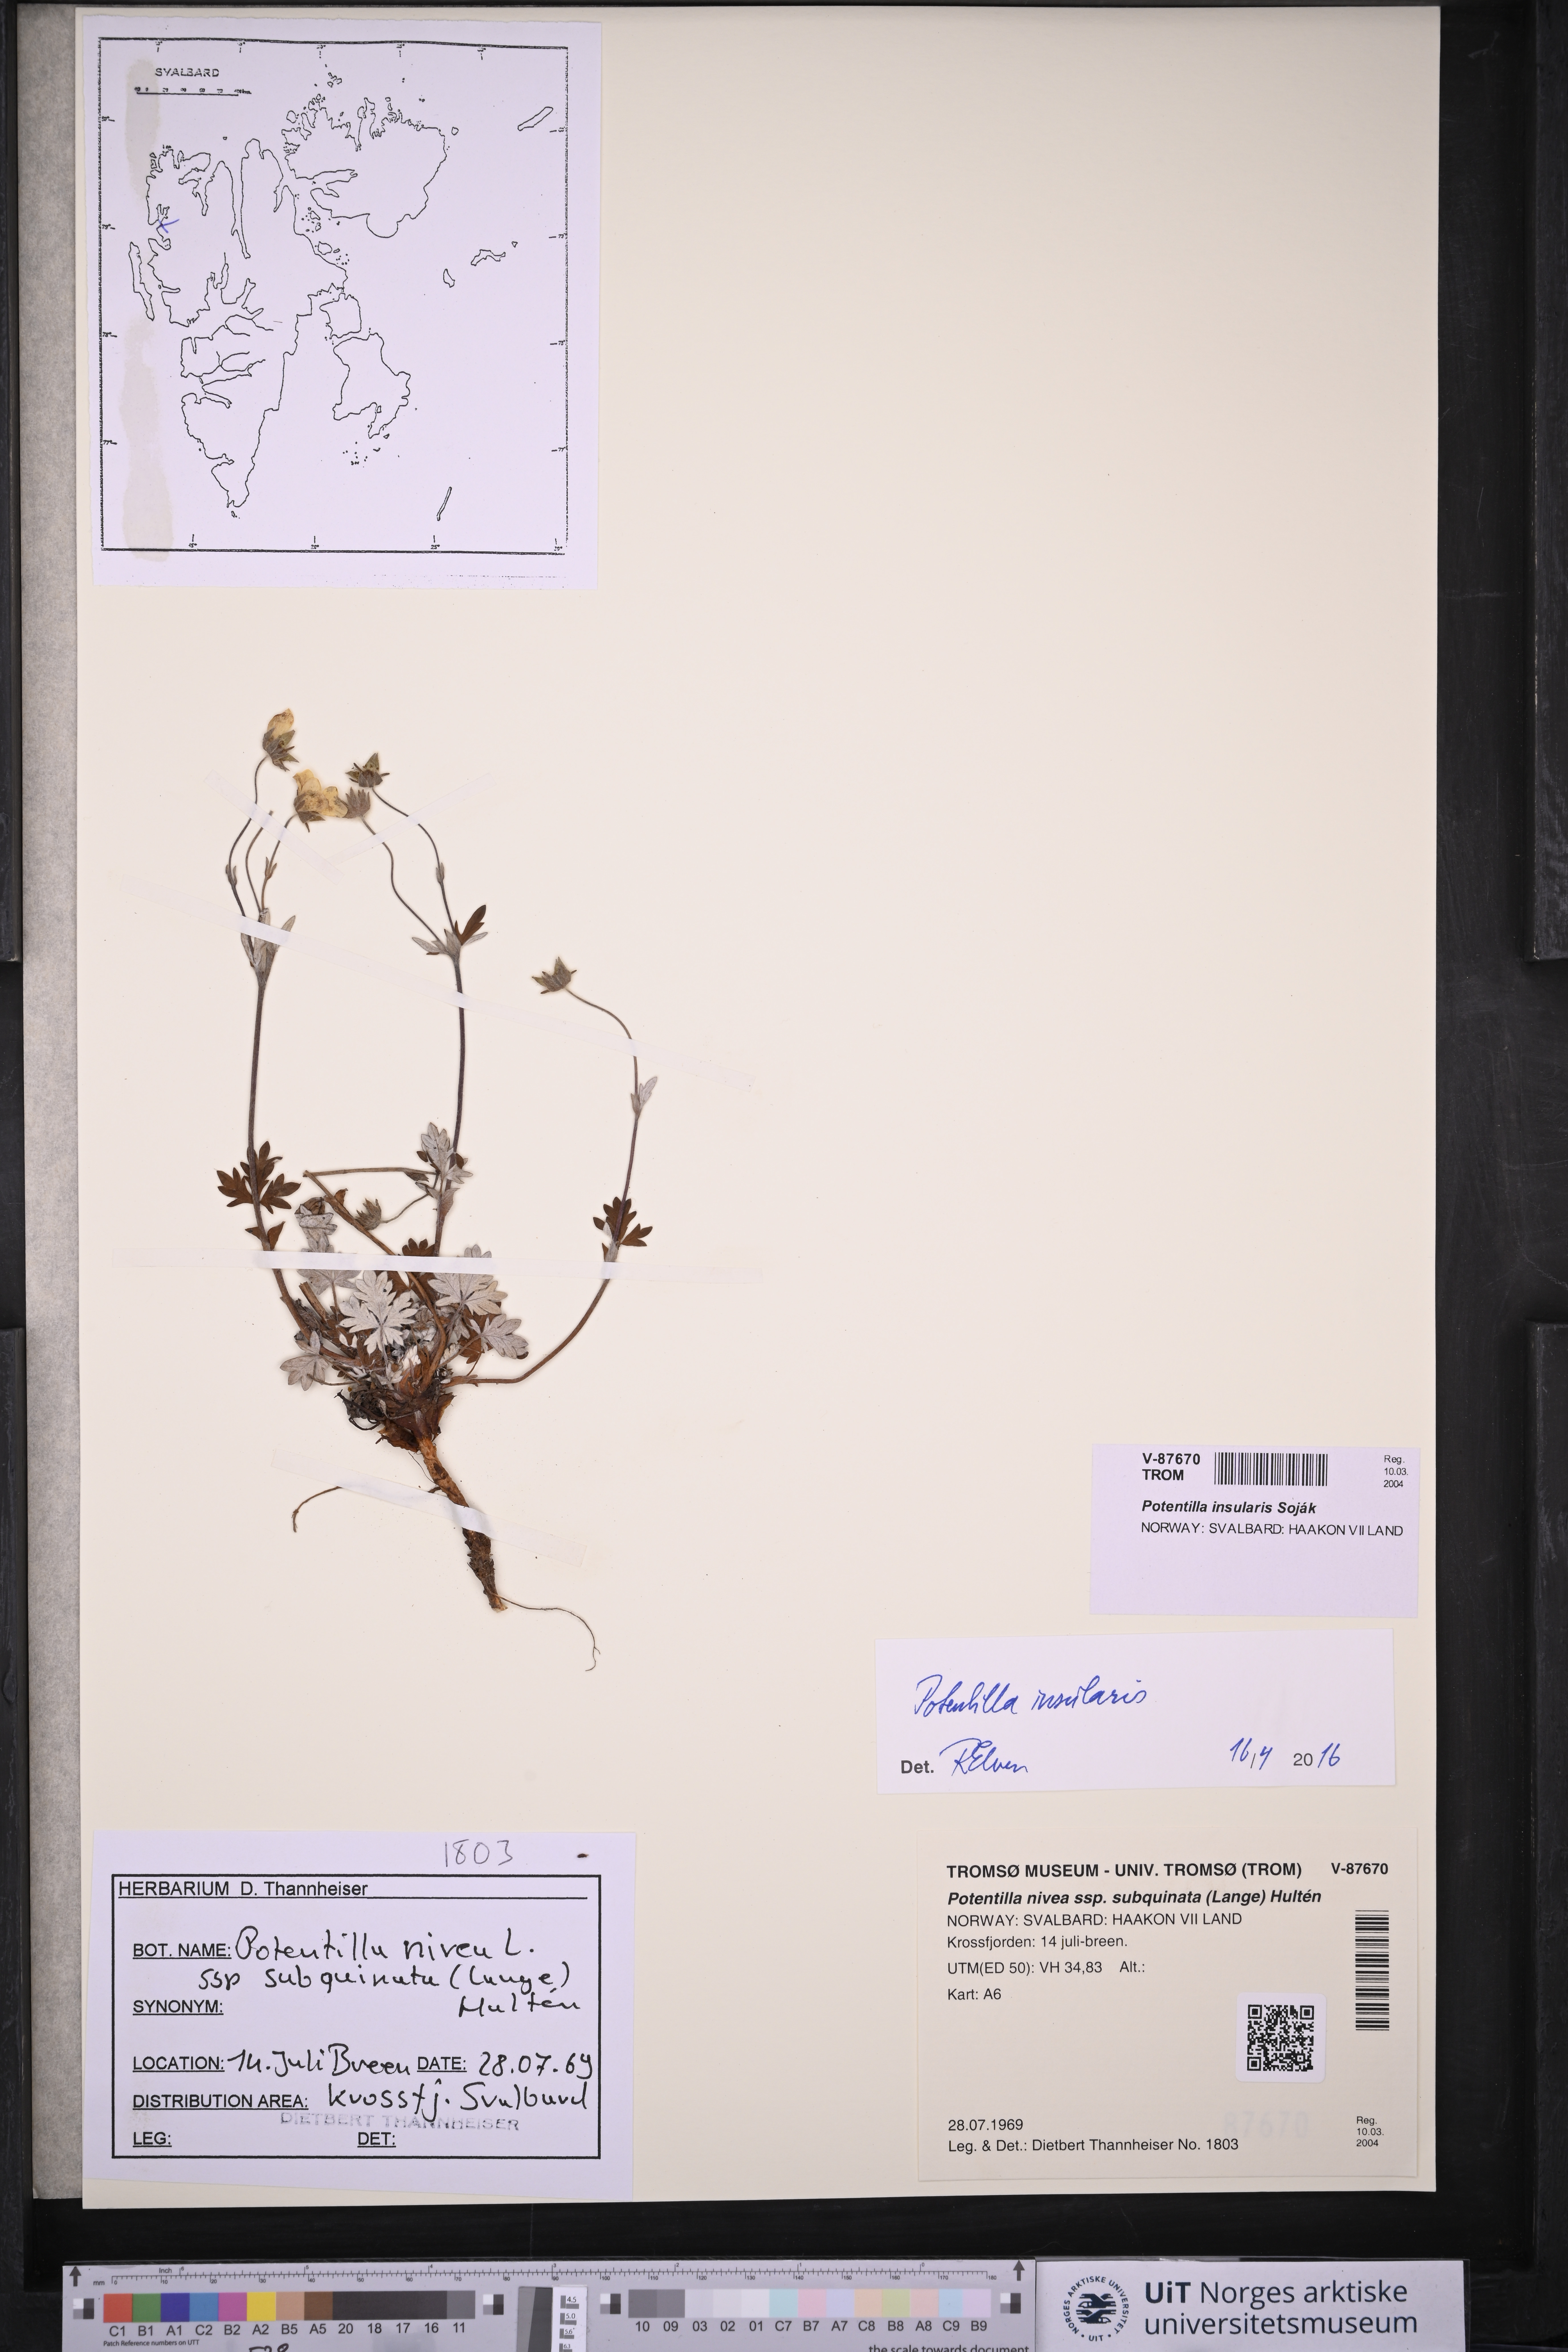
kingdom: Plantae
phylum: Tracheophyta
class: Magnoliopsida
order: Rosales
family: Rosaceae
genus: Potentilla
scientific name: Potentilla insularis
